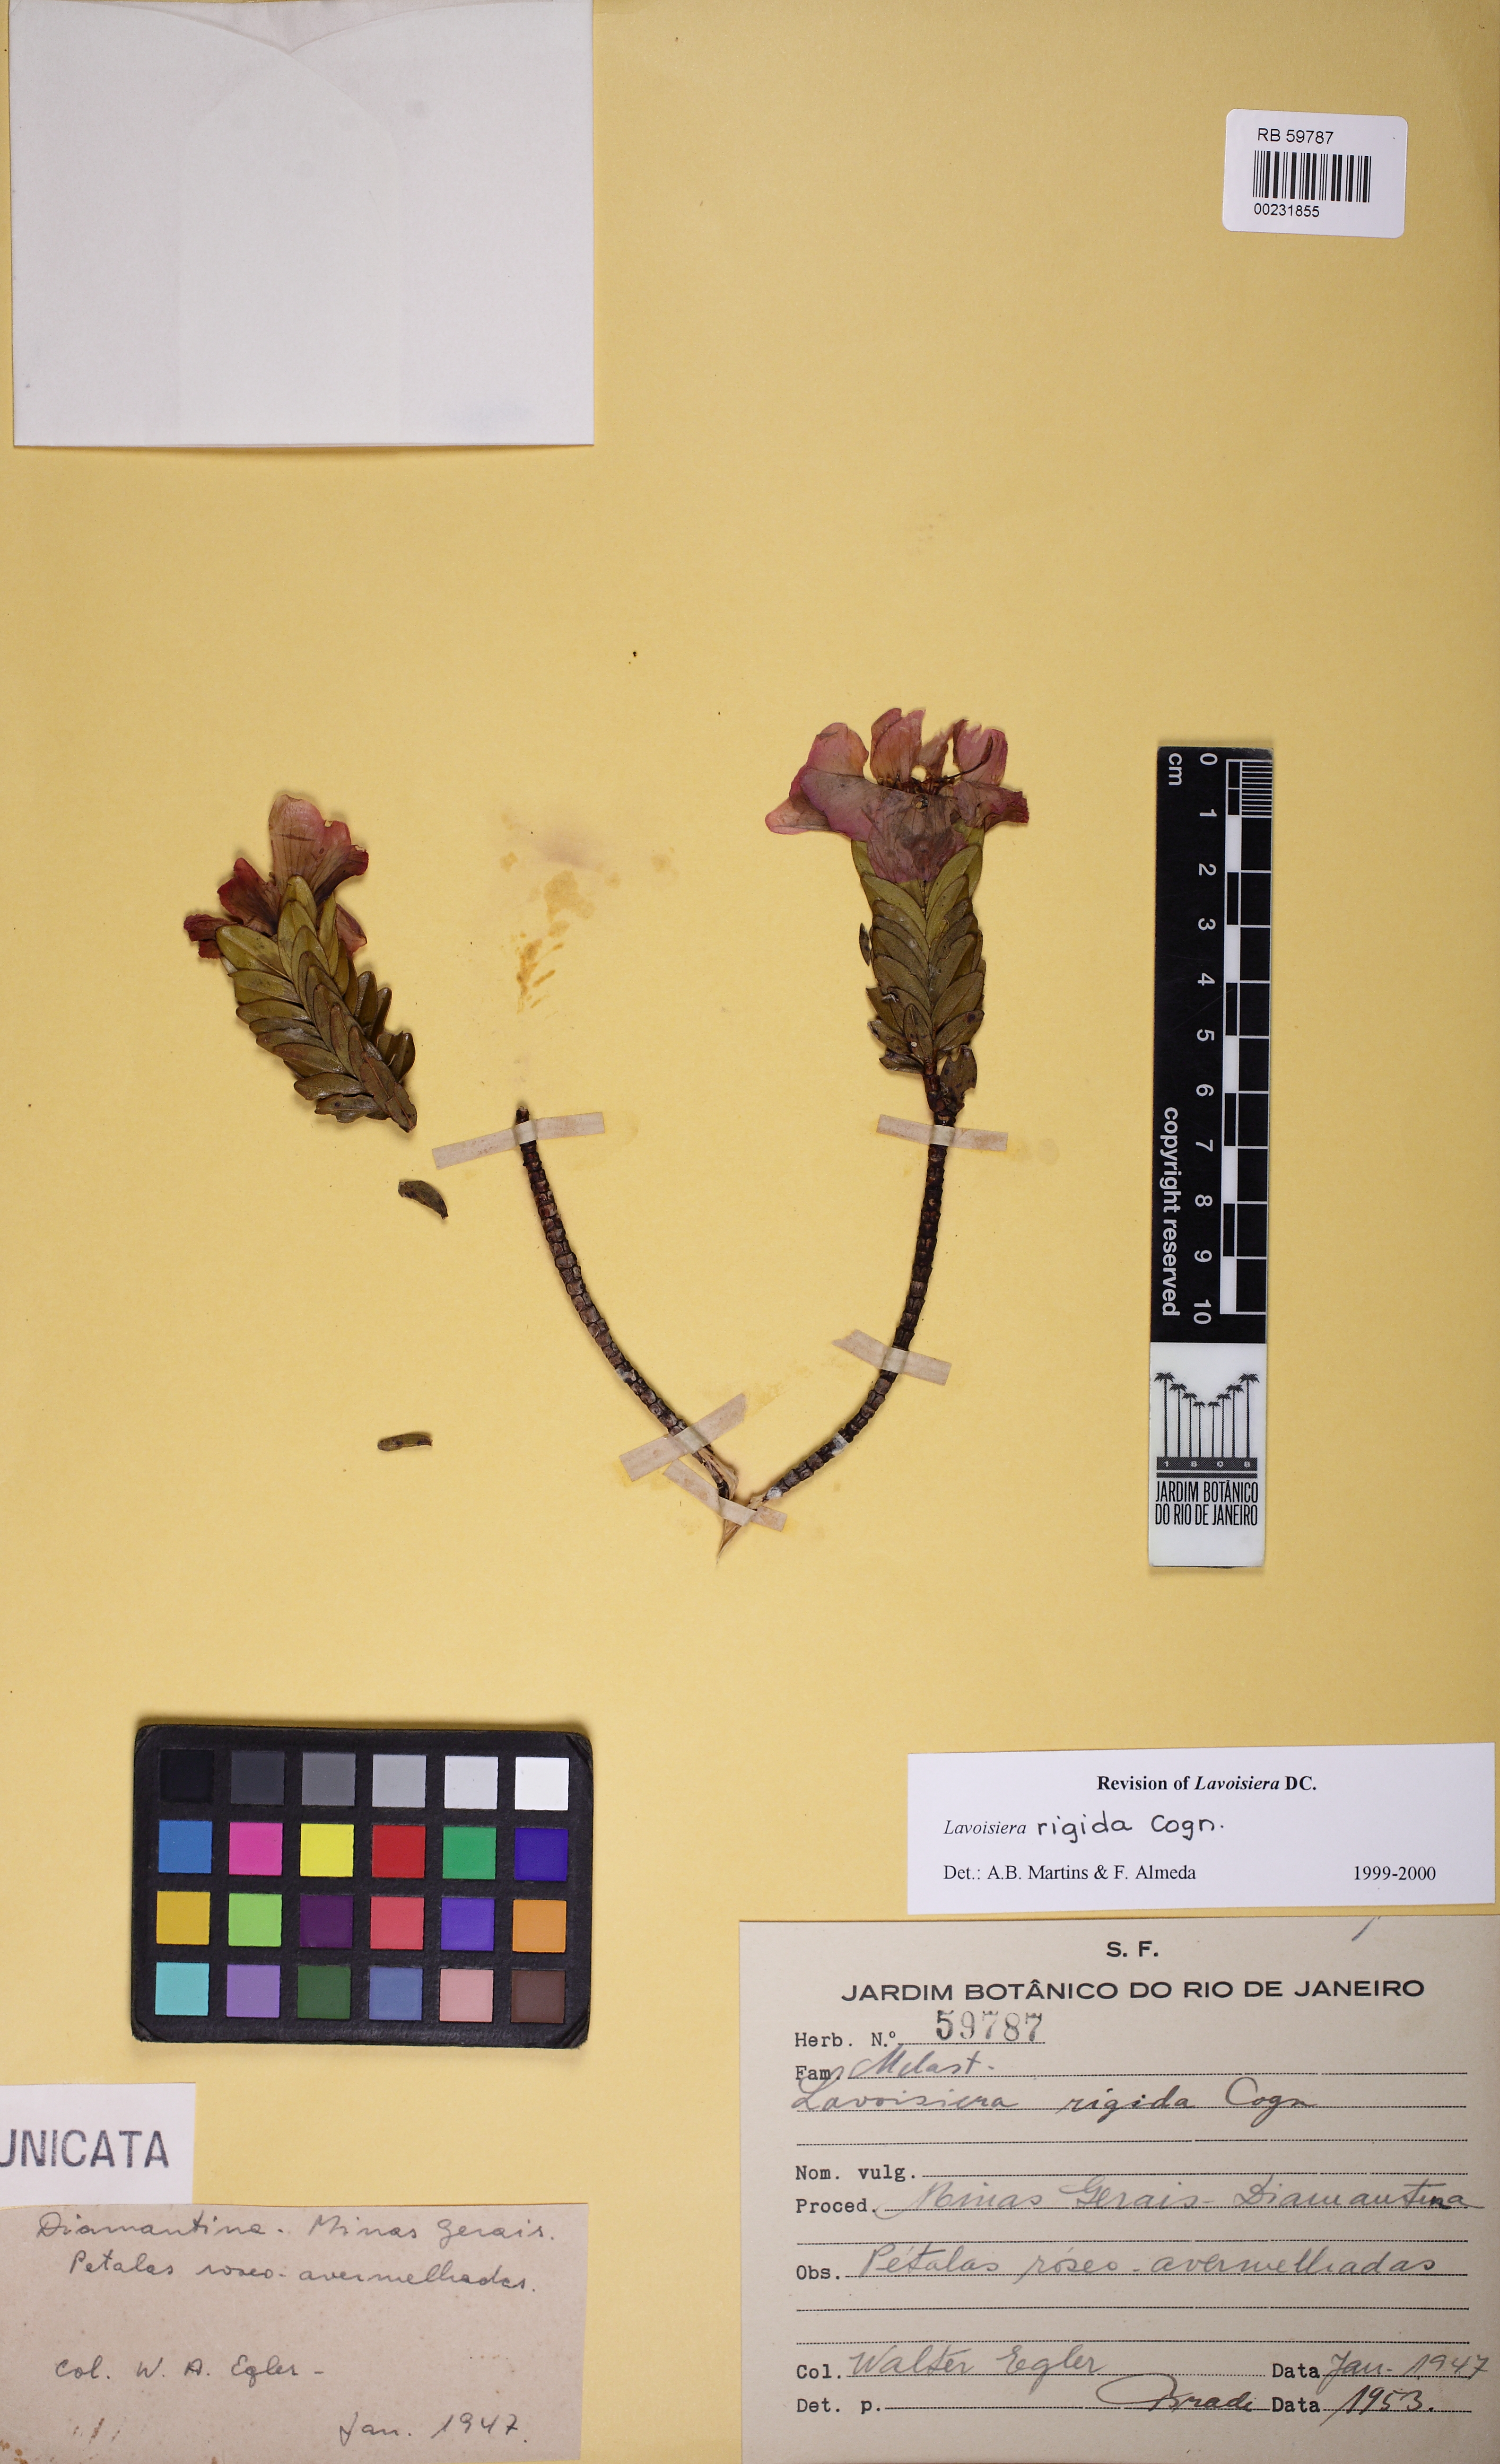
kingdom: Plantae
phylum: Tracheophyta
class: Magnoliopsida
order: Myrtales
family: Melastomataceae
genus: Microlicia
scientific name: Microlicia rigida
